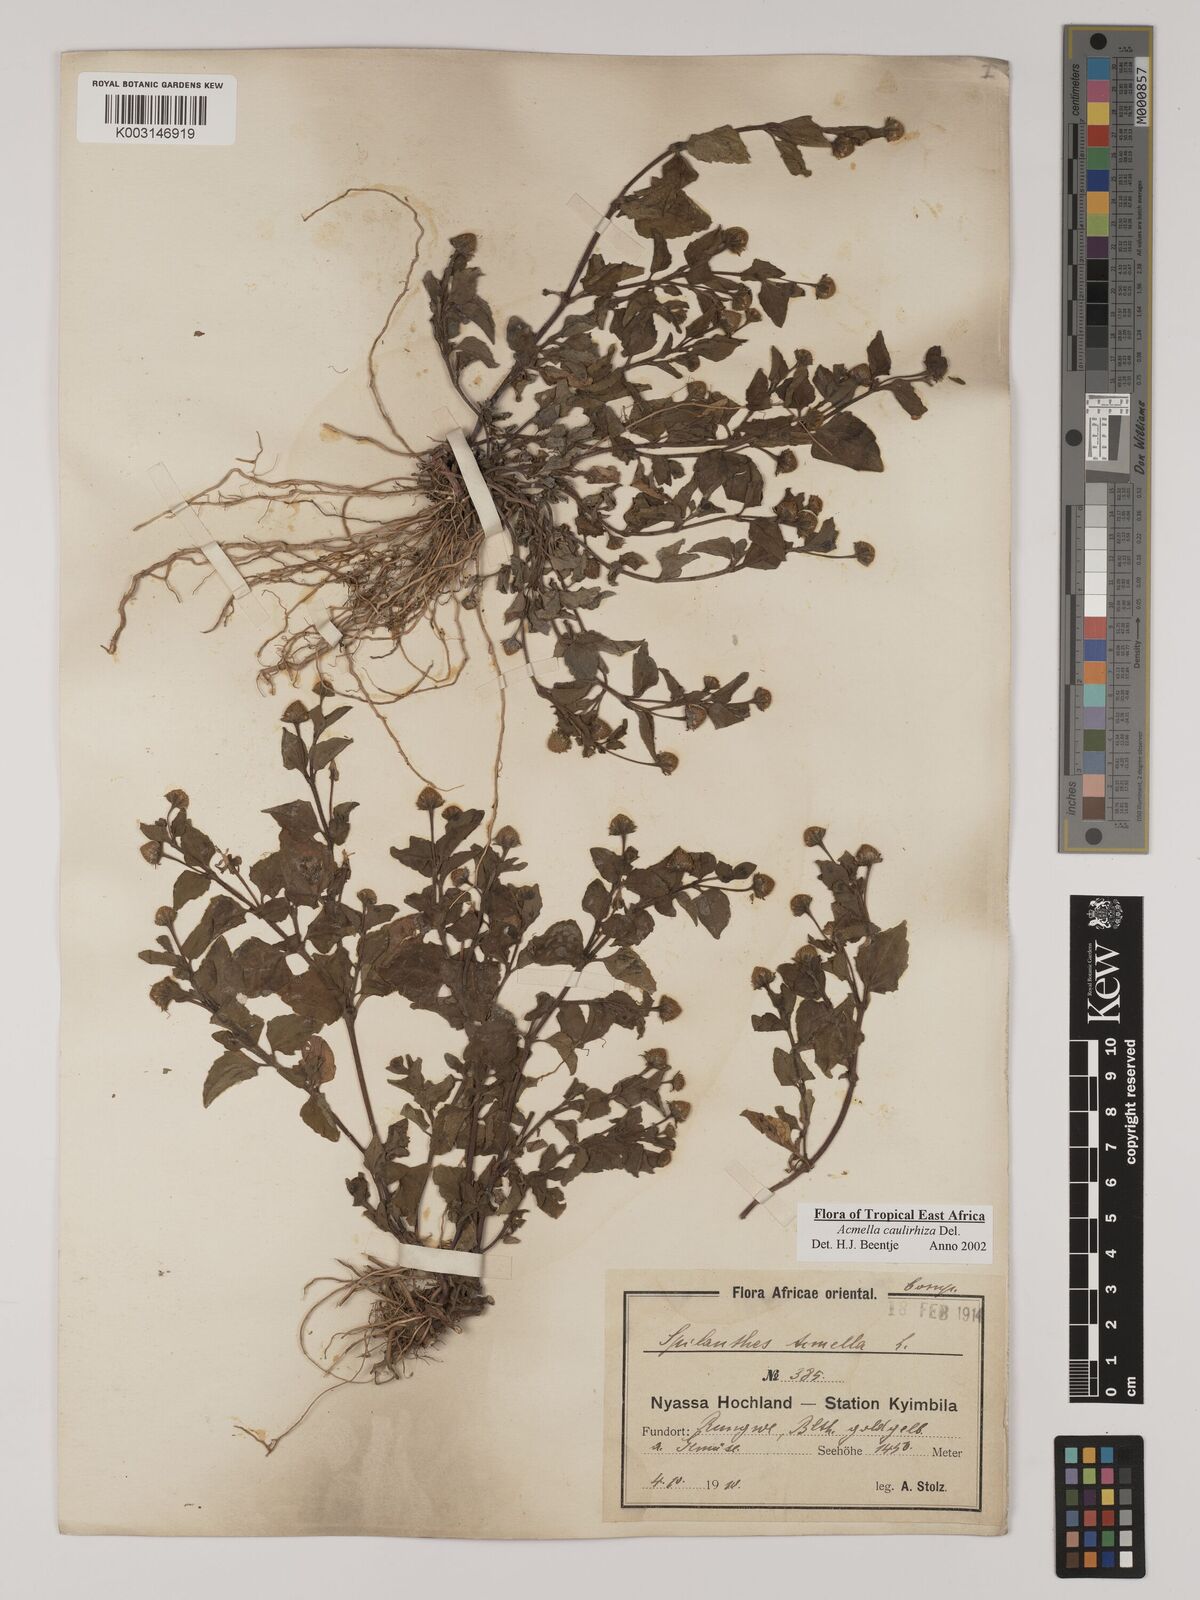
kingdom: Plantae
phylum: Tracheophyta
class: Magnoliopsida
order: Asterales
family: Asteraceae
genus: Acmella
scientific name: Acmella caulirhiza
